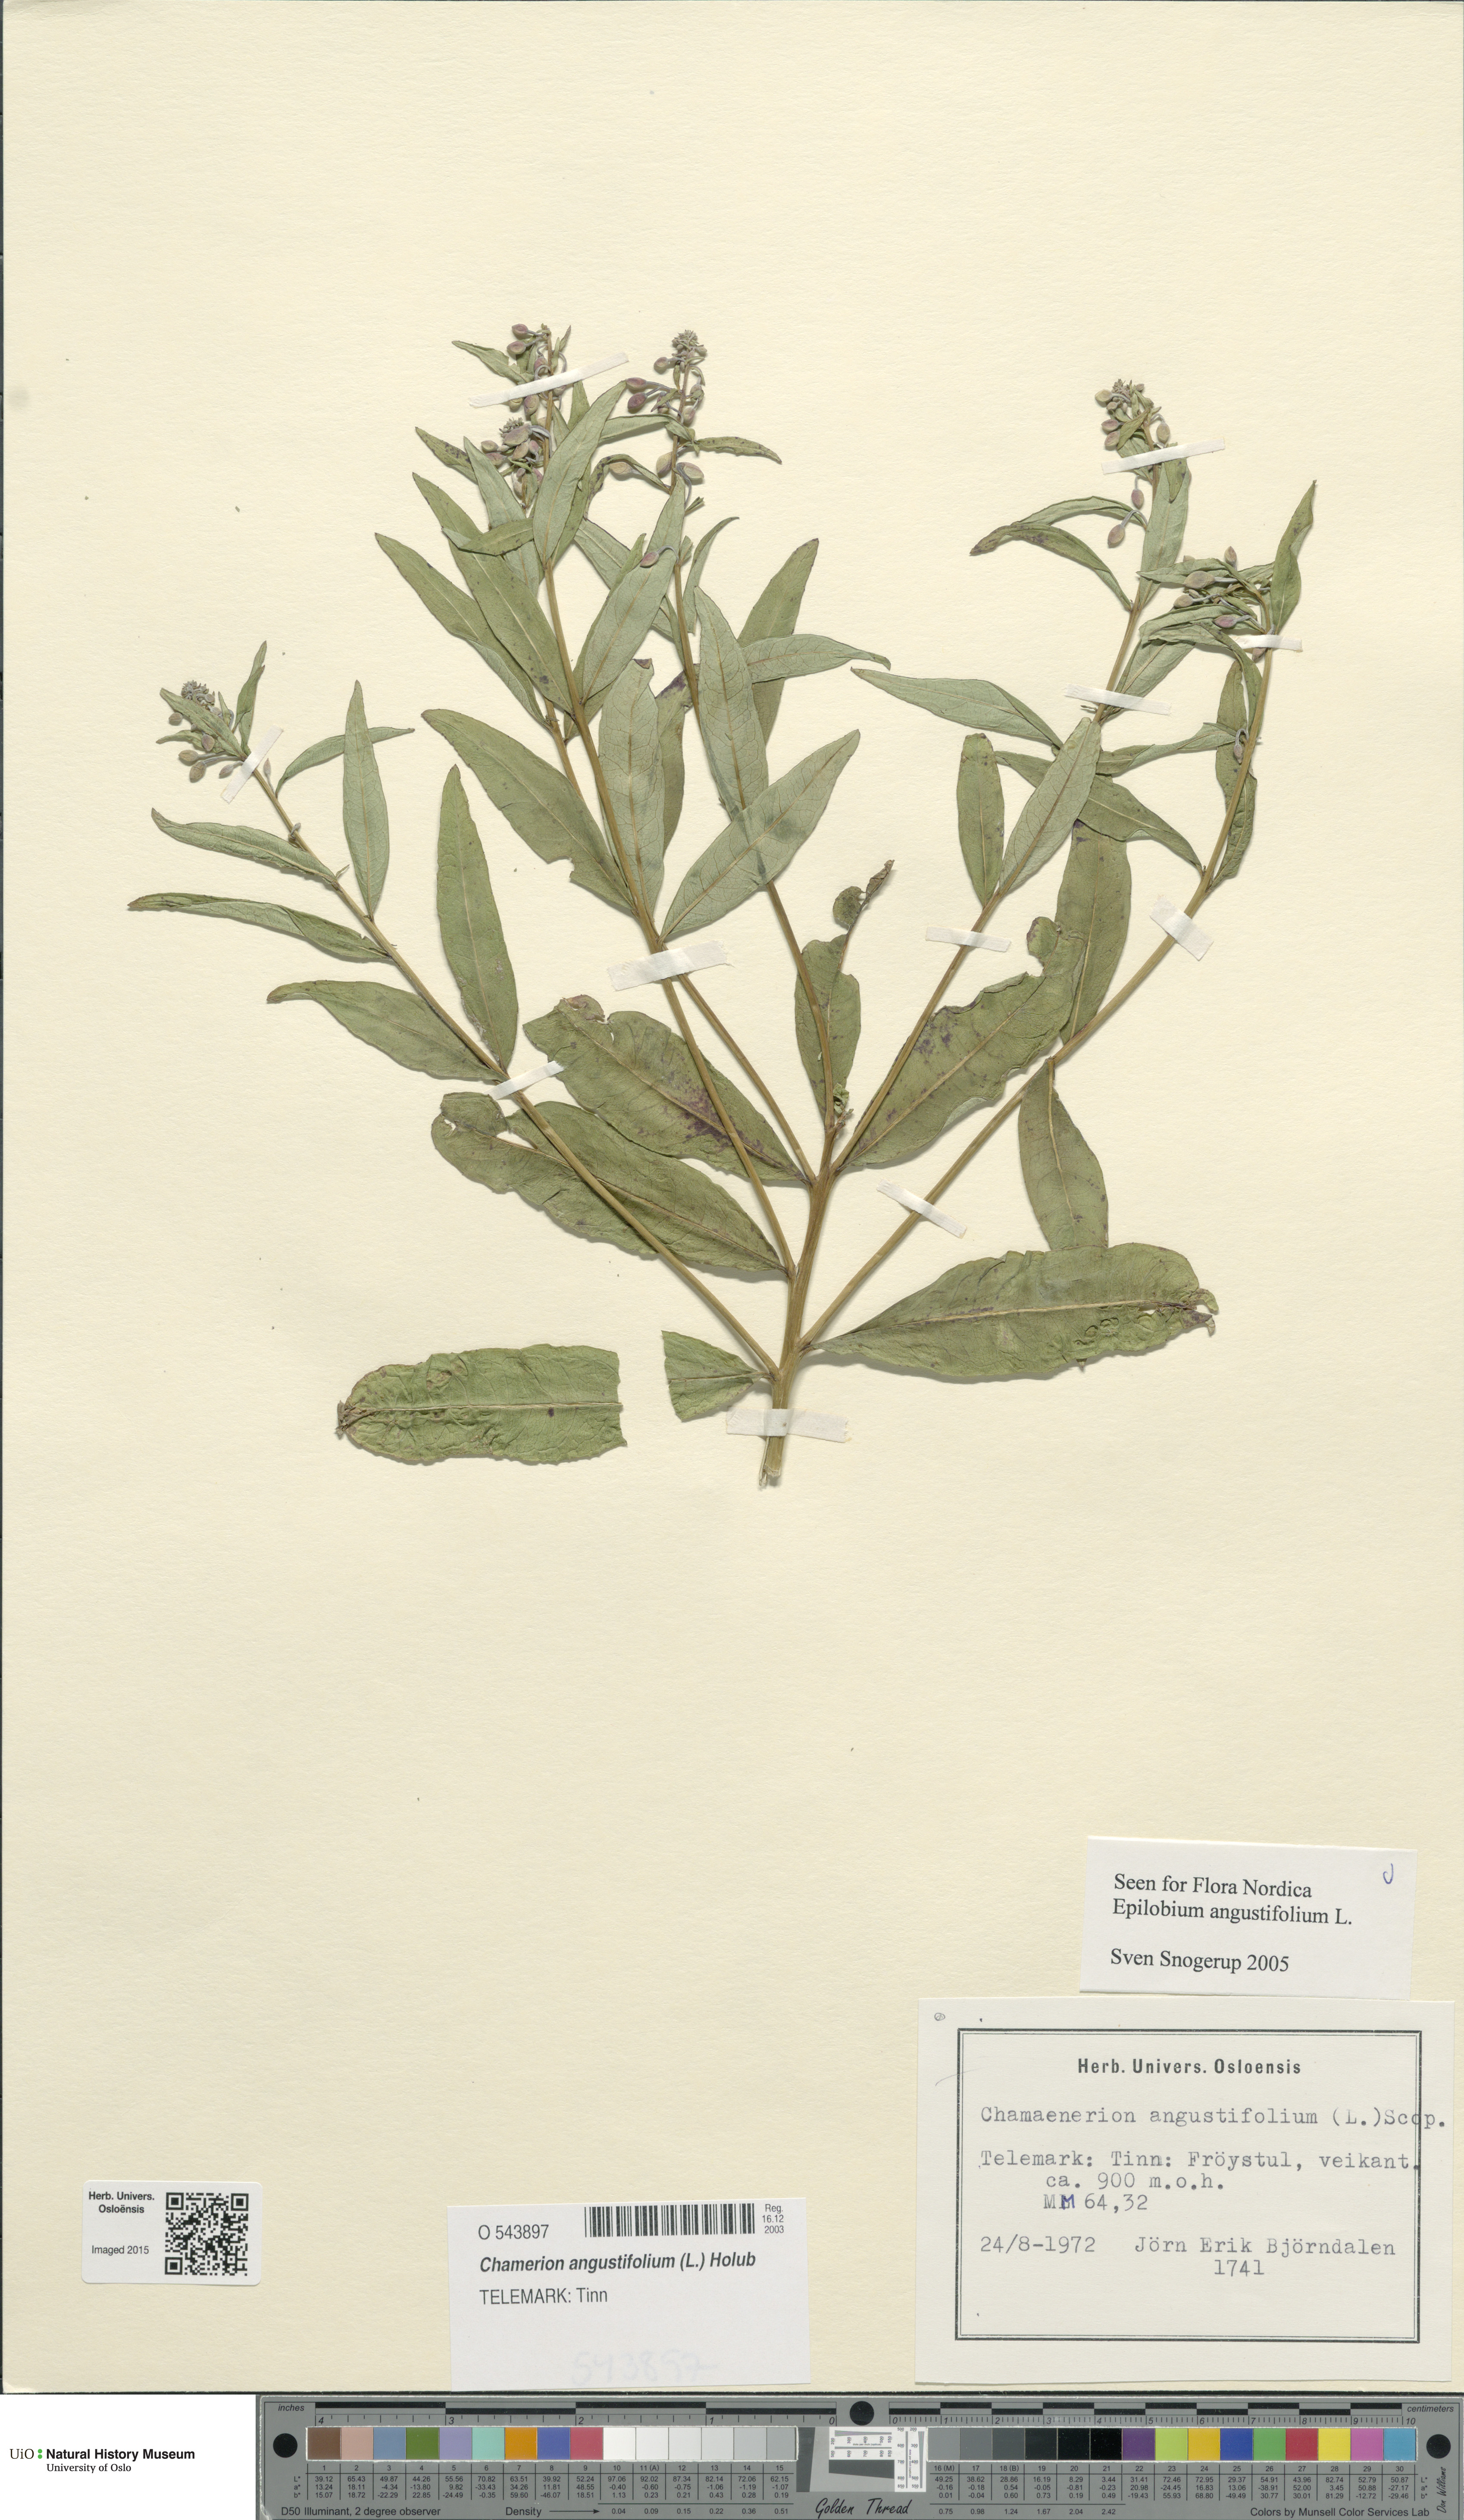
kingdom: Plantae
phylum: Tracheophyta
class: Magnoliopsida
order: Myrtales
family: Onagraceae
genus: Chamaenerion
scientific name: Chamaenerion angustifolium
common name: Fireweed
